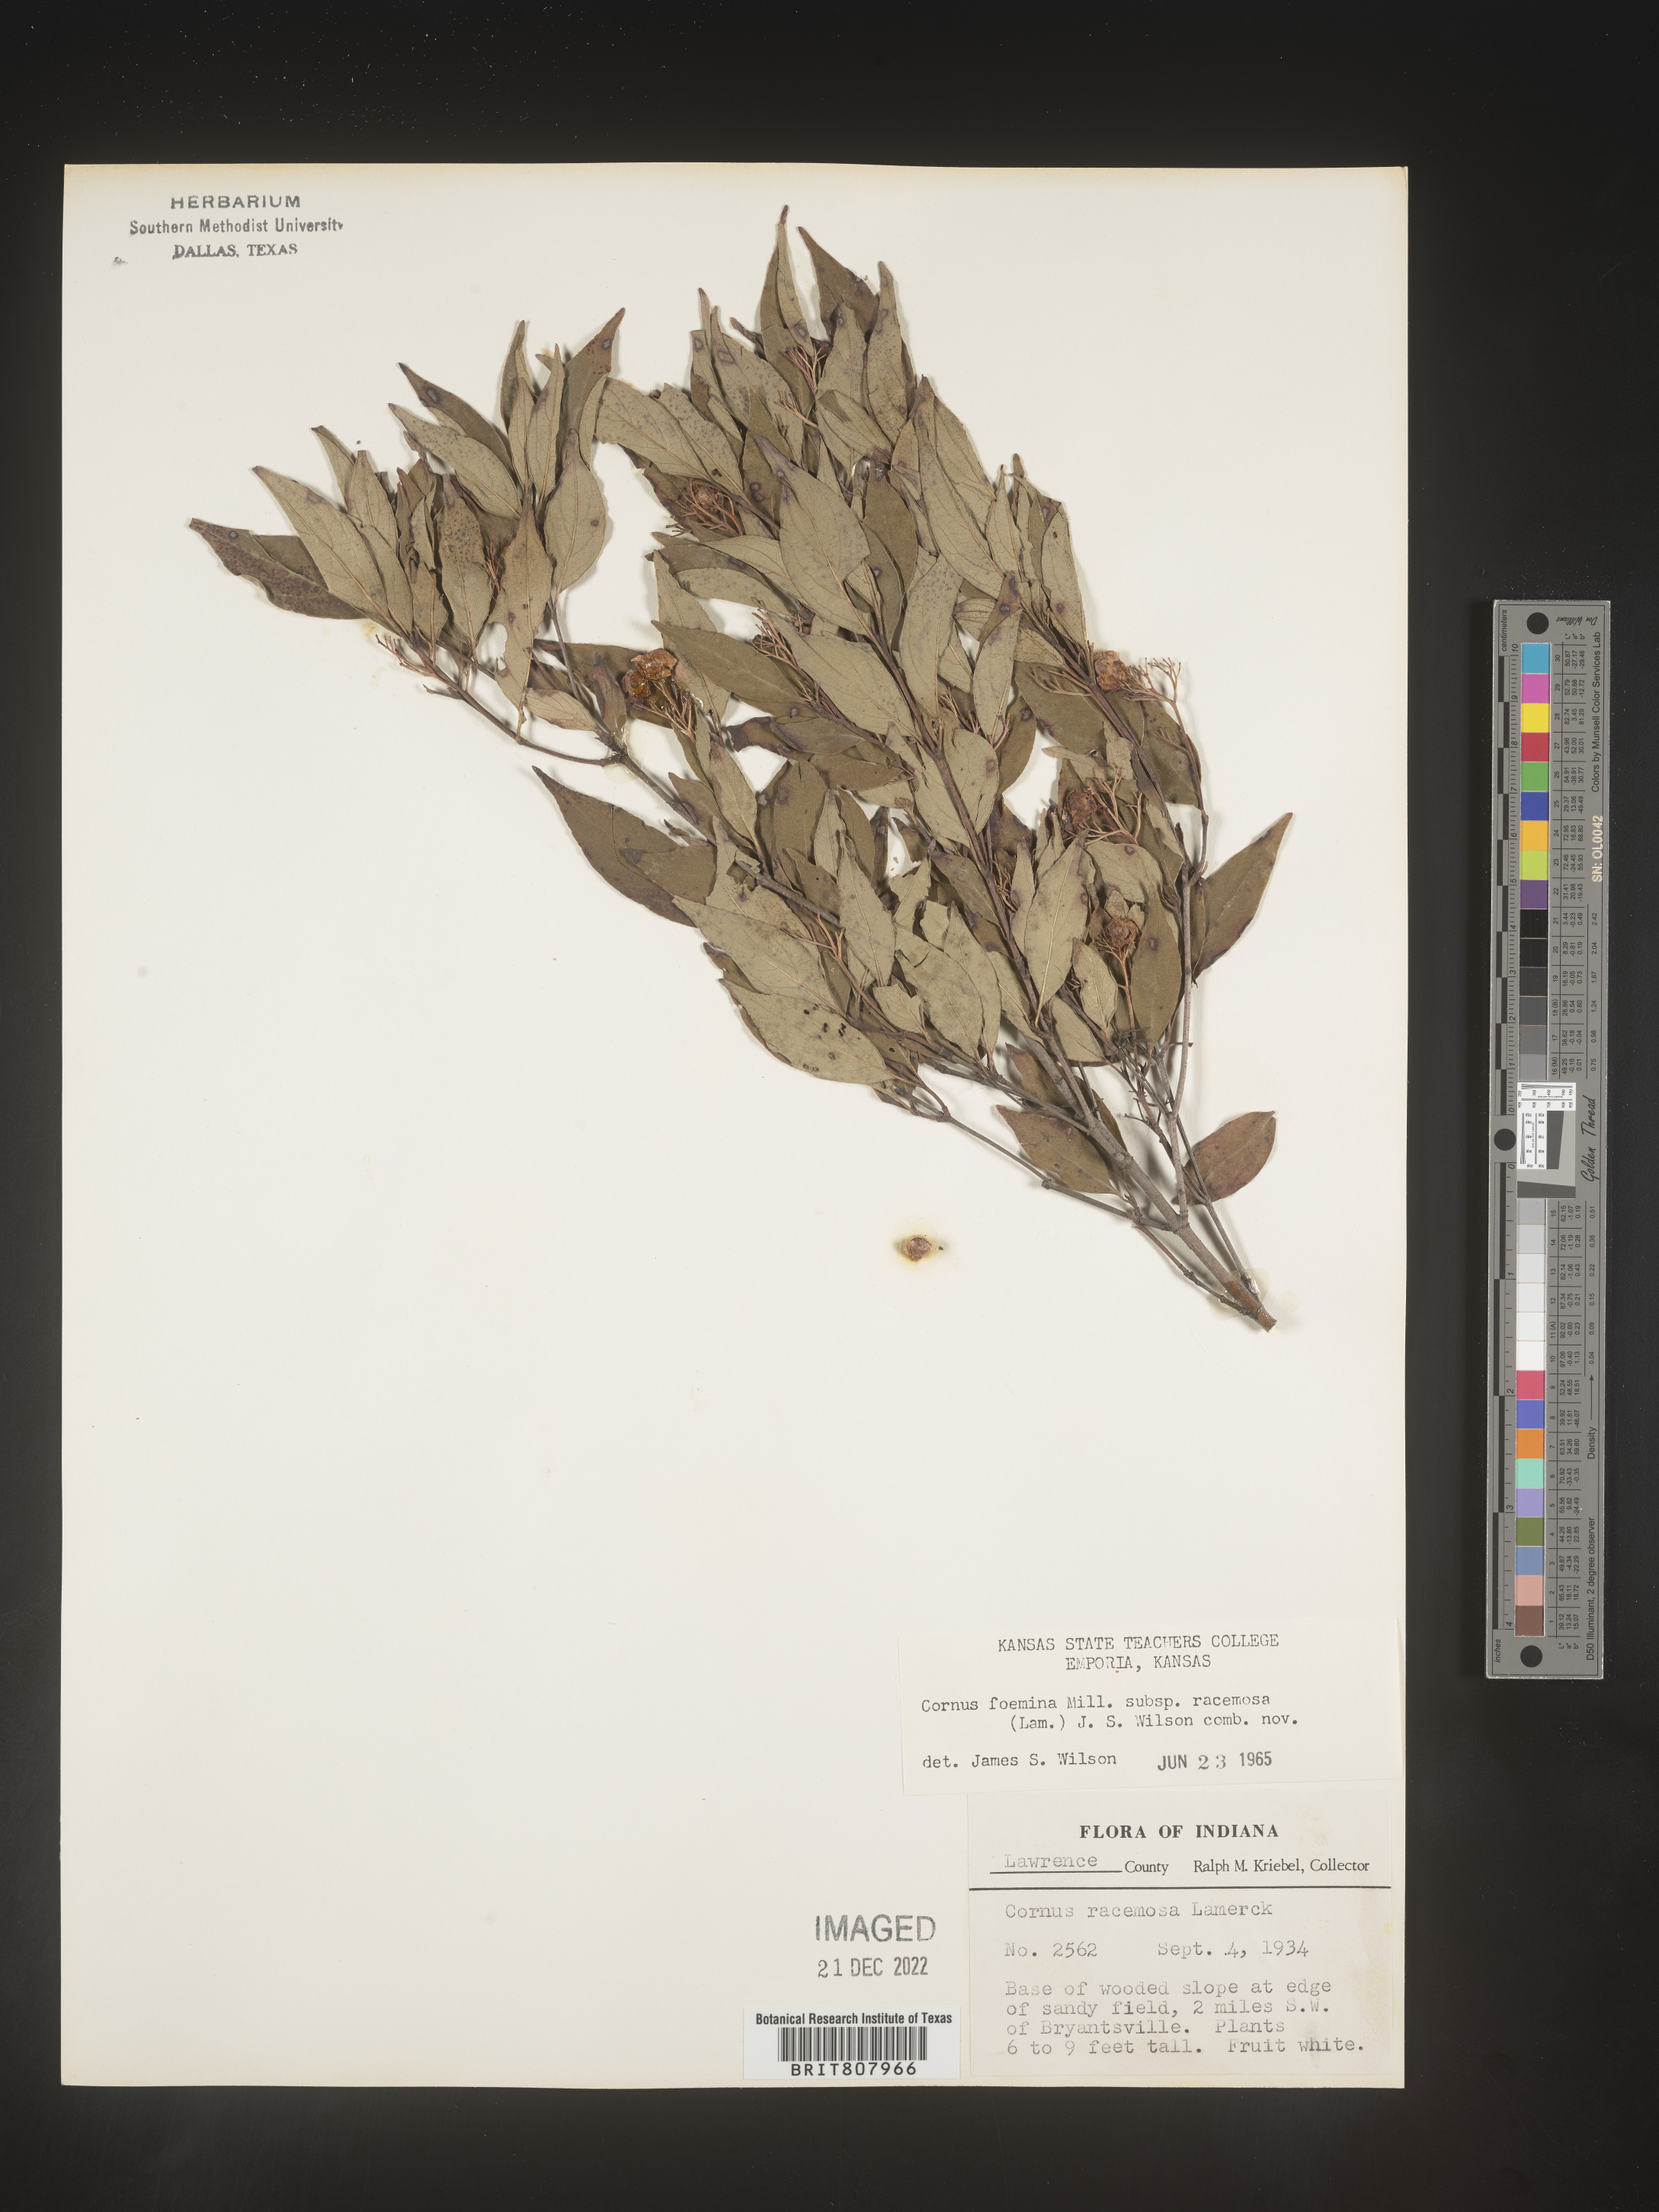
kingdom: Plantae
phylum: Tracheophyta
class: Magnoliopsida
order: Cornales
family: Cornaceae
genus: Cornus
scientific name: Cornus racemosa
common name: Panicled dogwood
